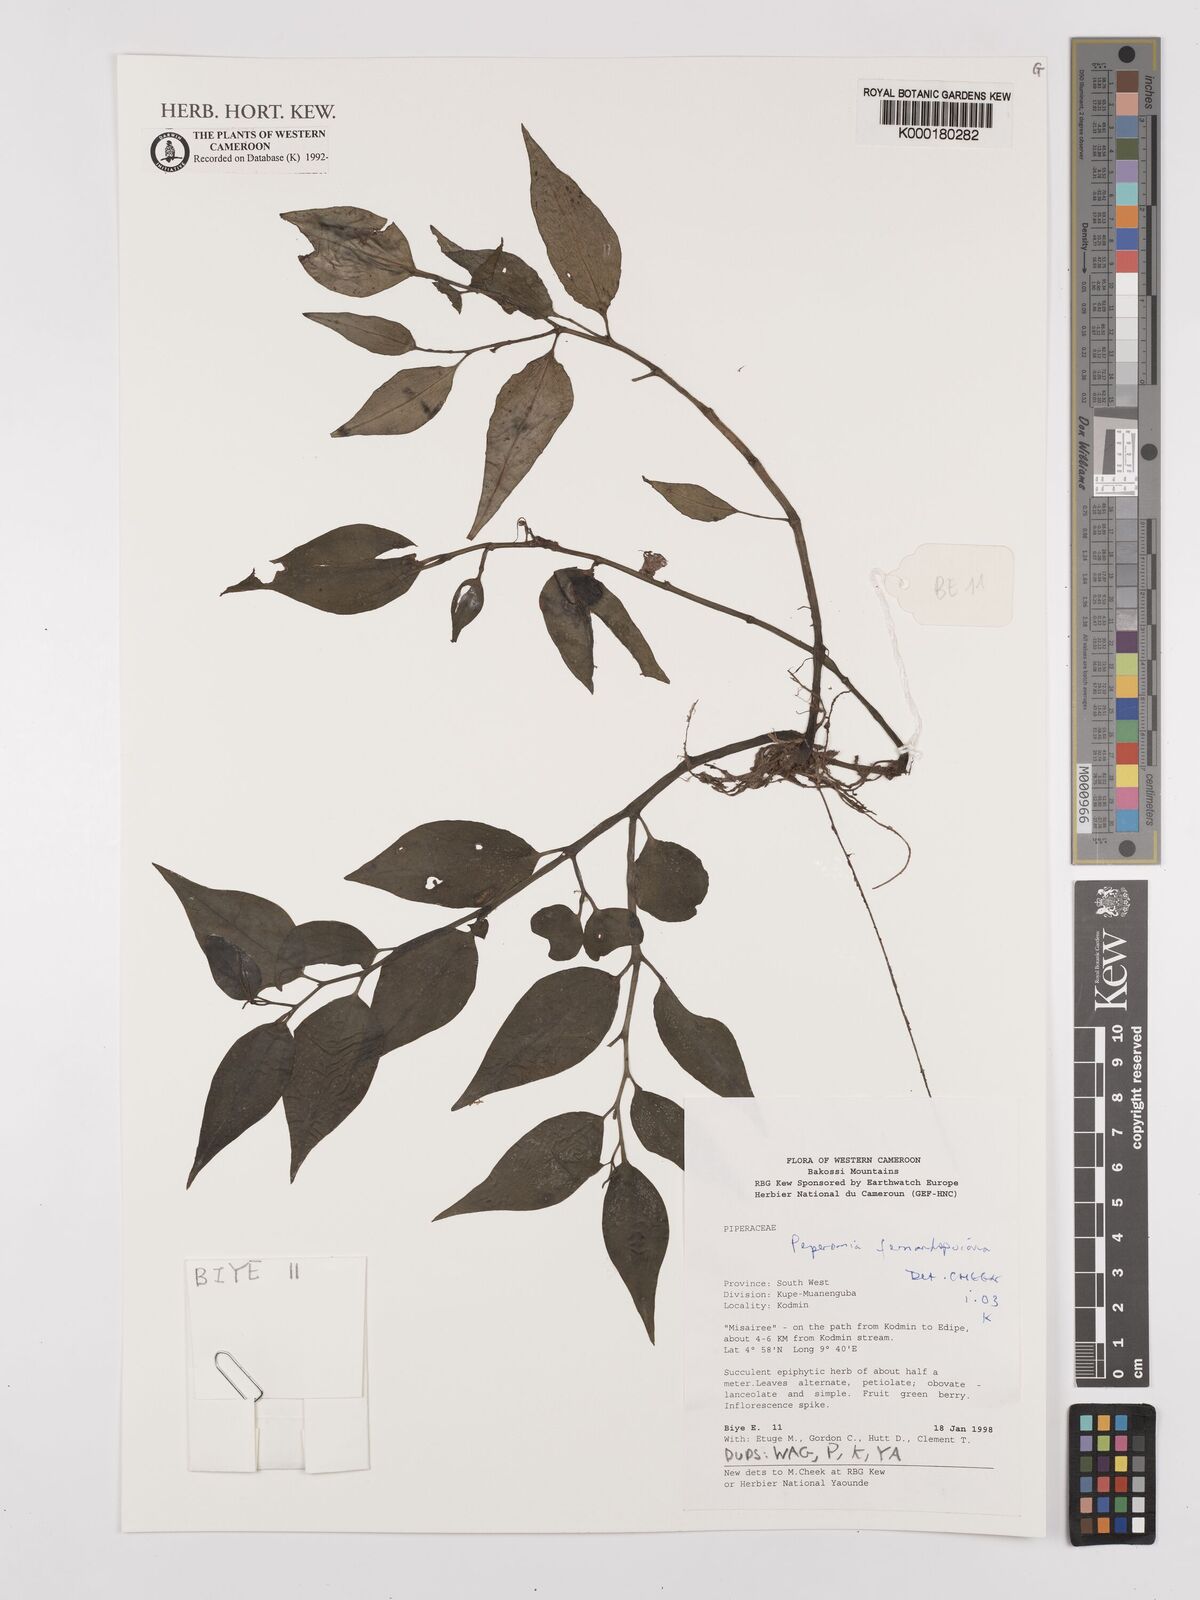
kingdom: Plantae
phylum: Tracheophyta
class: Magnoliopsida
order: Piperales
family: Piperaceae
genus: Peperomia
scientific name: Peperomia fernandopoiana
